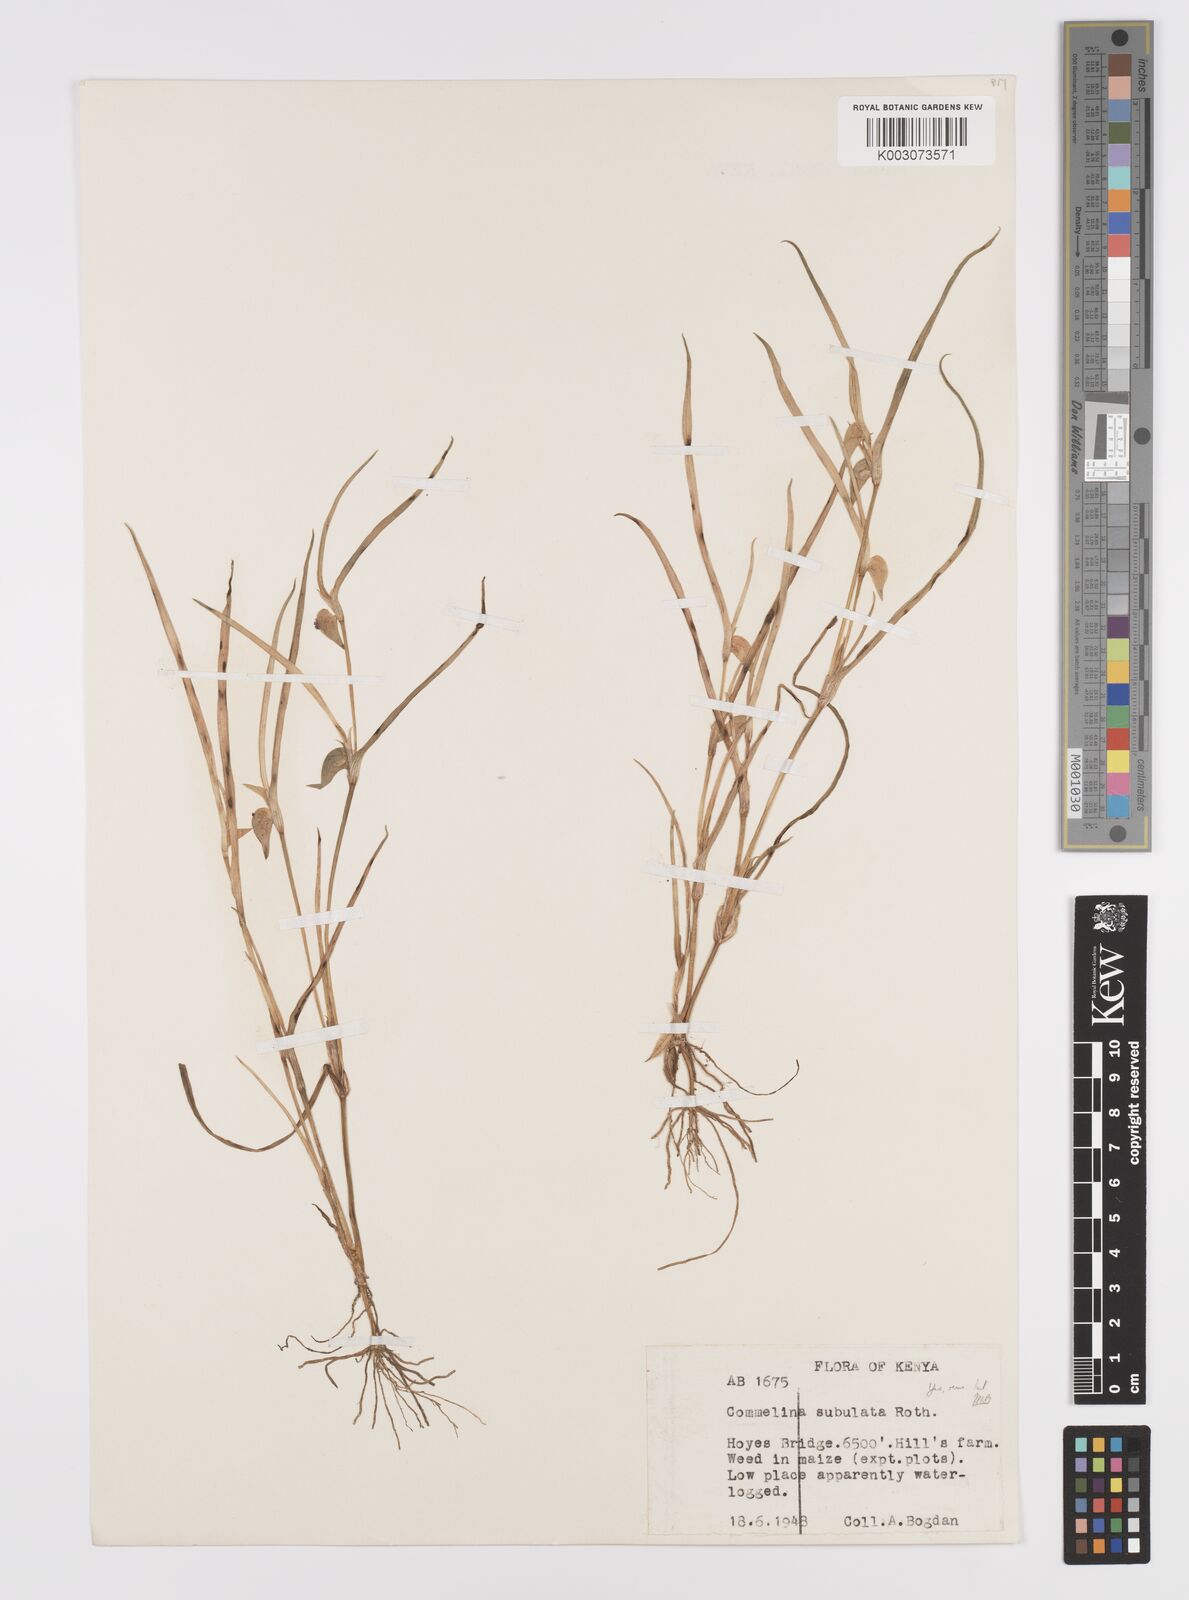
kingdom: Plantae
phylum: Tracheophyta
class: Liliopsida
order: Commelinales
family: Commelinaceae
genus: Commelina
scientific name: Commelina subulata
